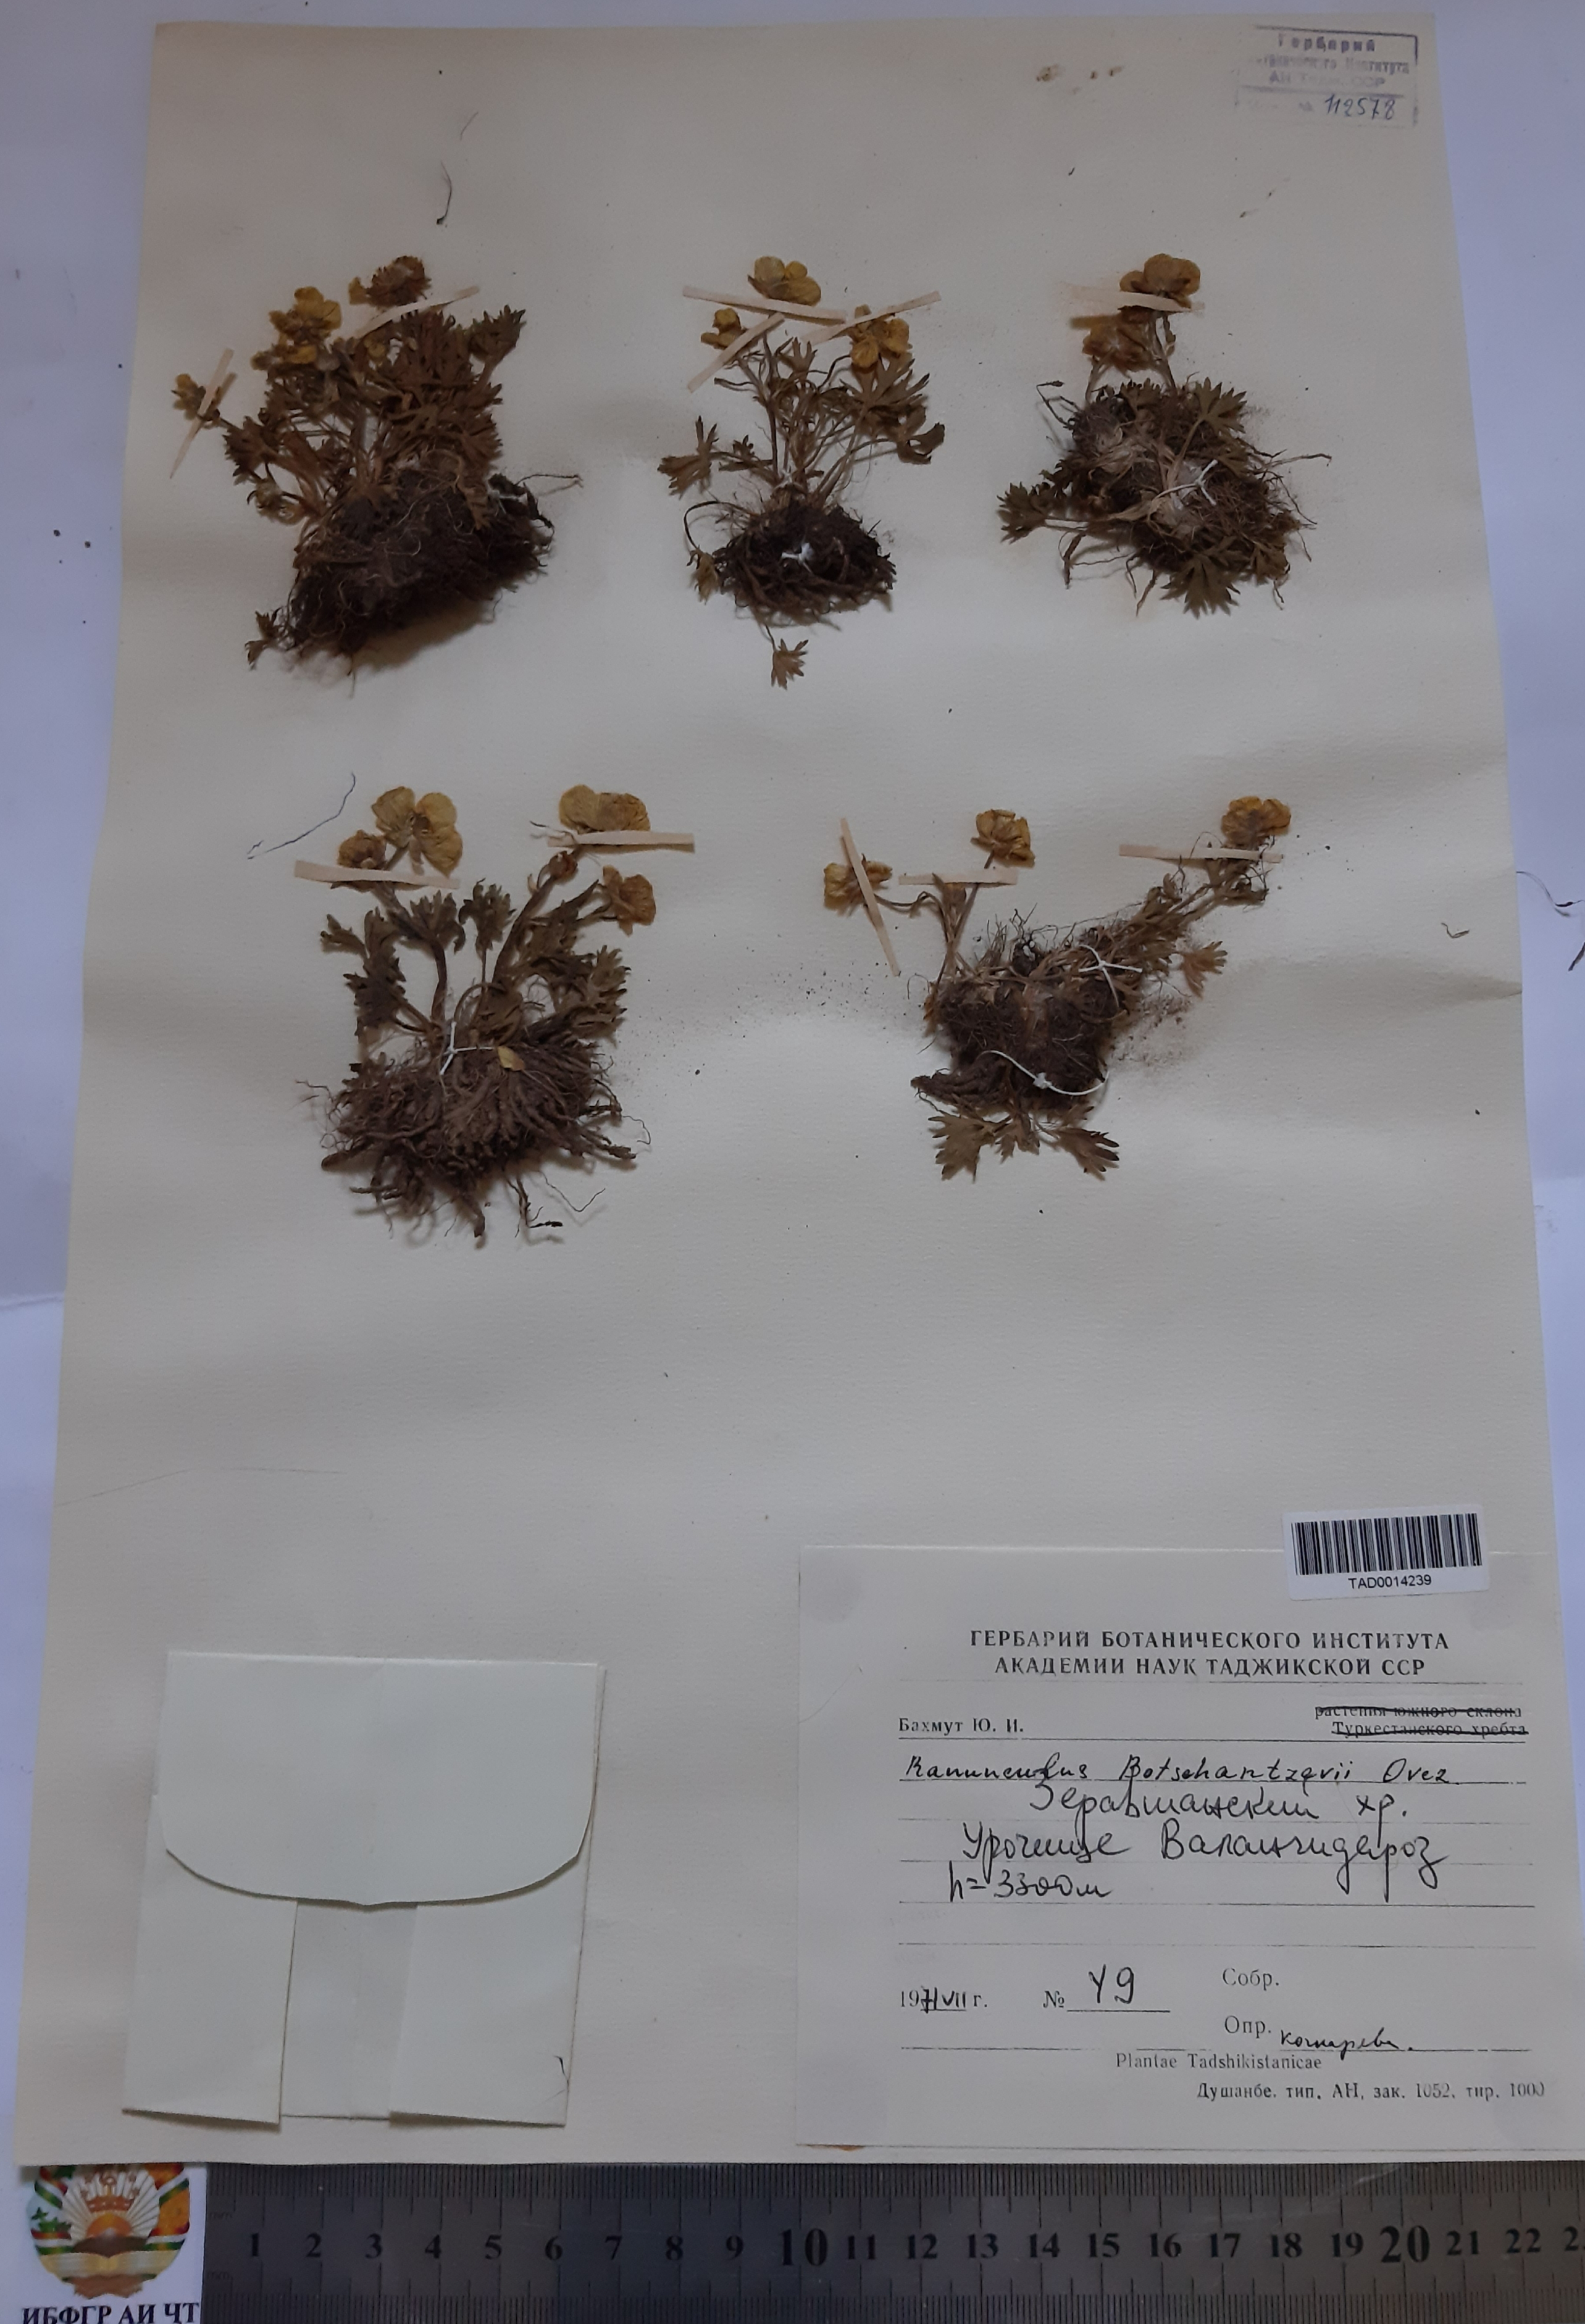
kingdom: Plantae
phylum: Tracheophyta
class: Magnoliopsida
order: Ranunculales
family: Ranunculaceae
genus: Ranunculus
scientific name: Ranunculus botschantzevii
